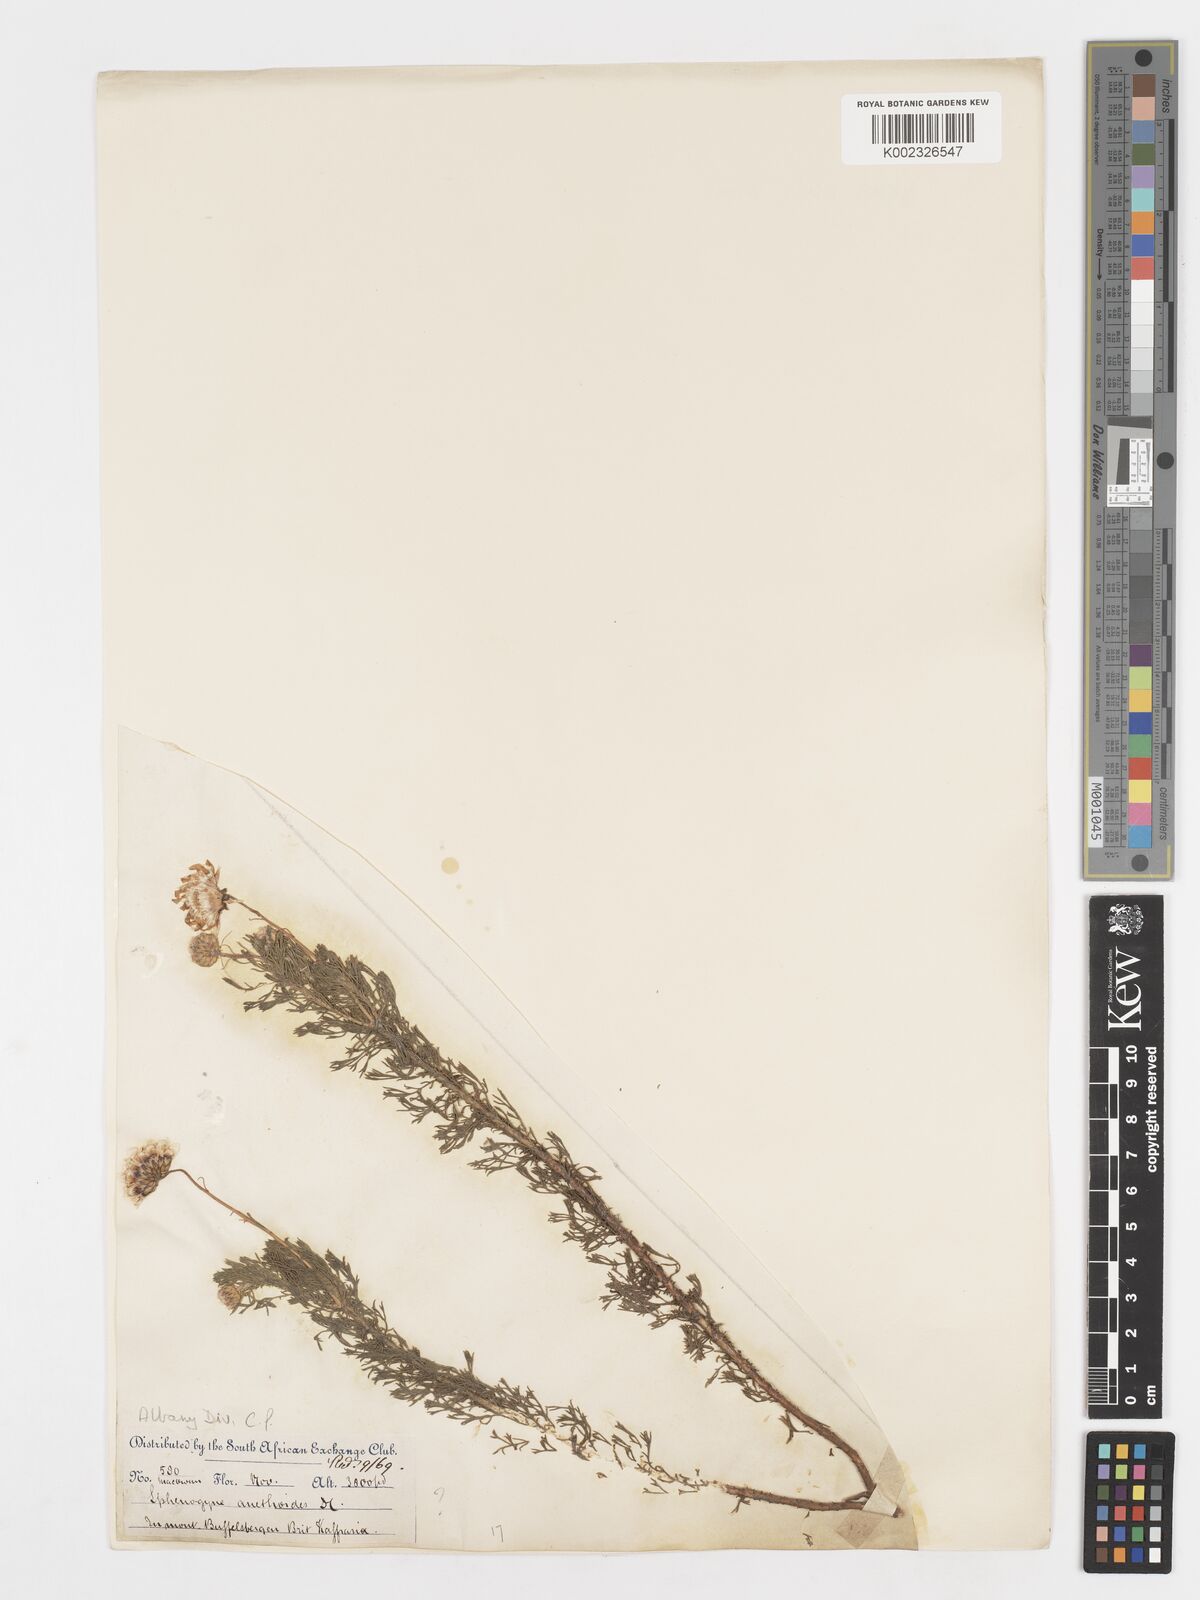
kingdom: Plantae
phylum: Tracheophyta
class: Magnoliopsida
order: Asterales
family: Asteraceae
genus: Ursinia
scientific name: Ursinia anethoides
